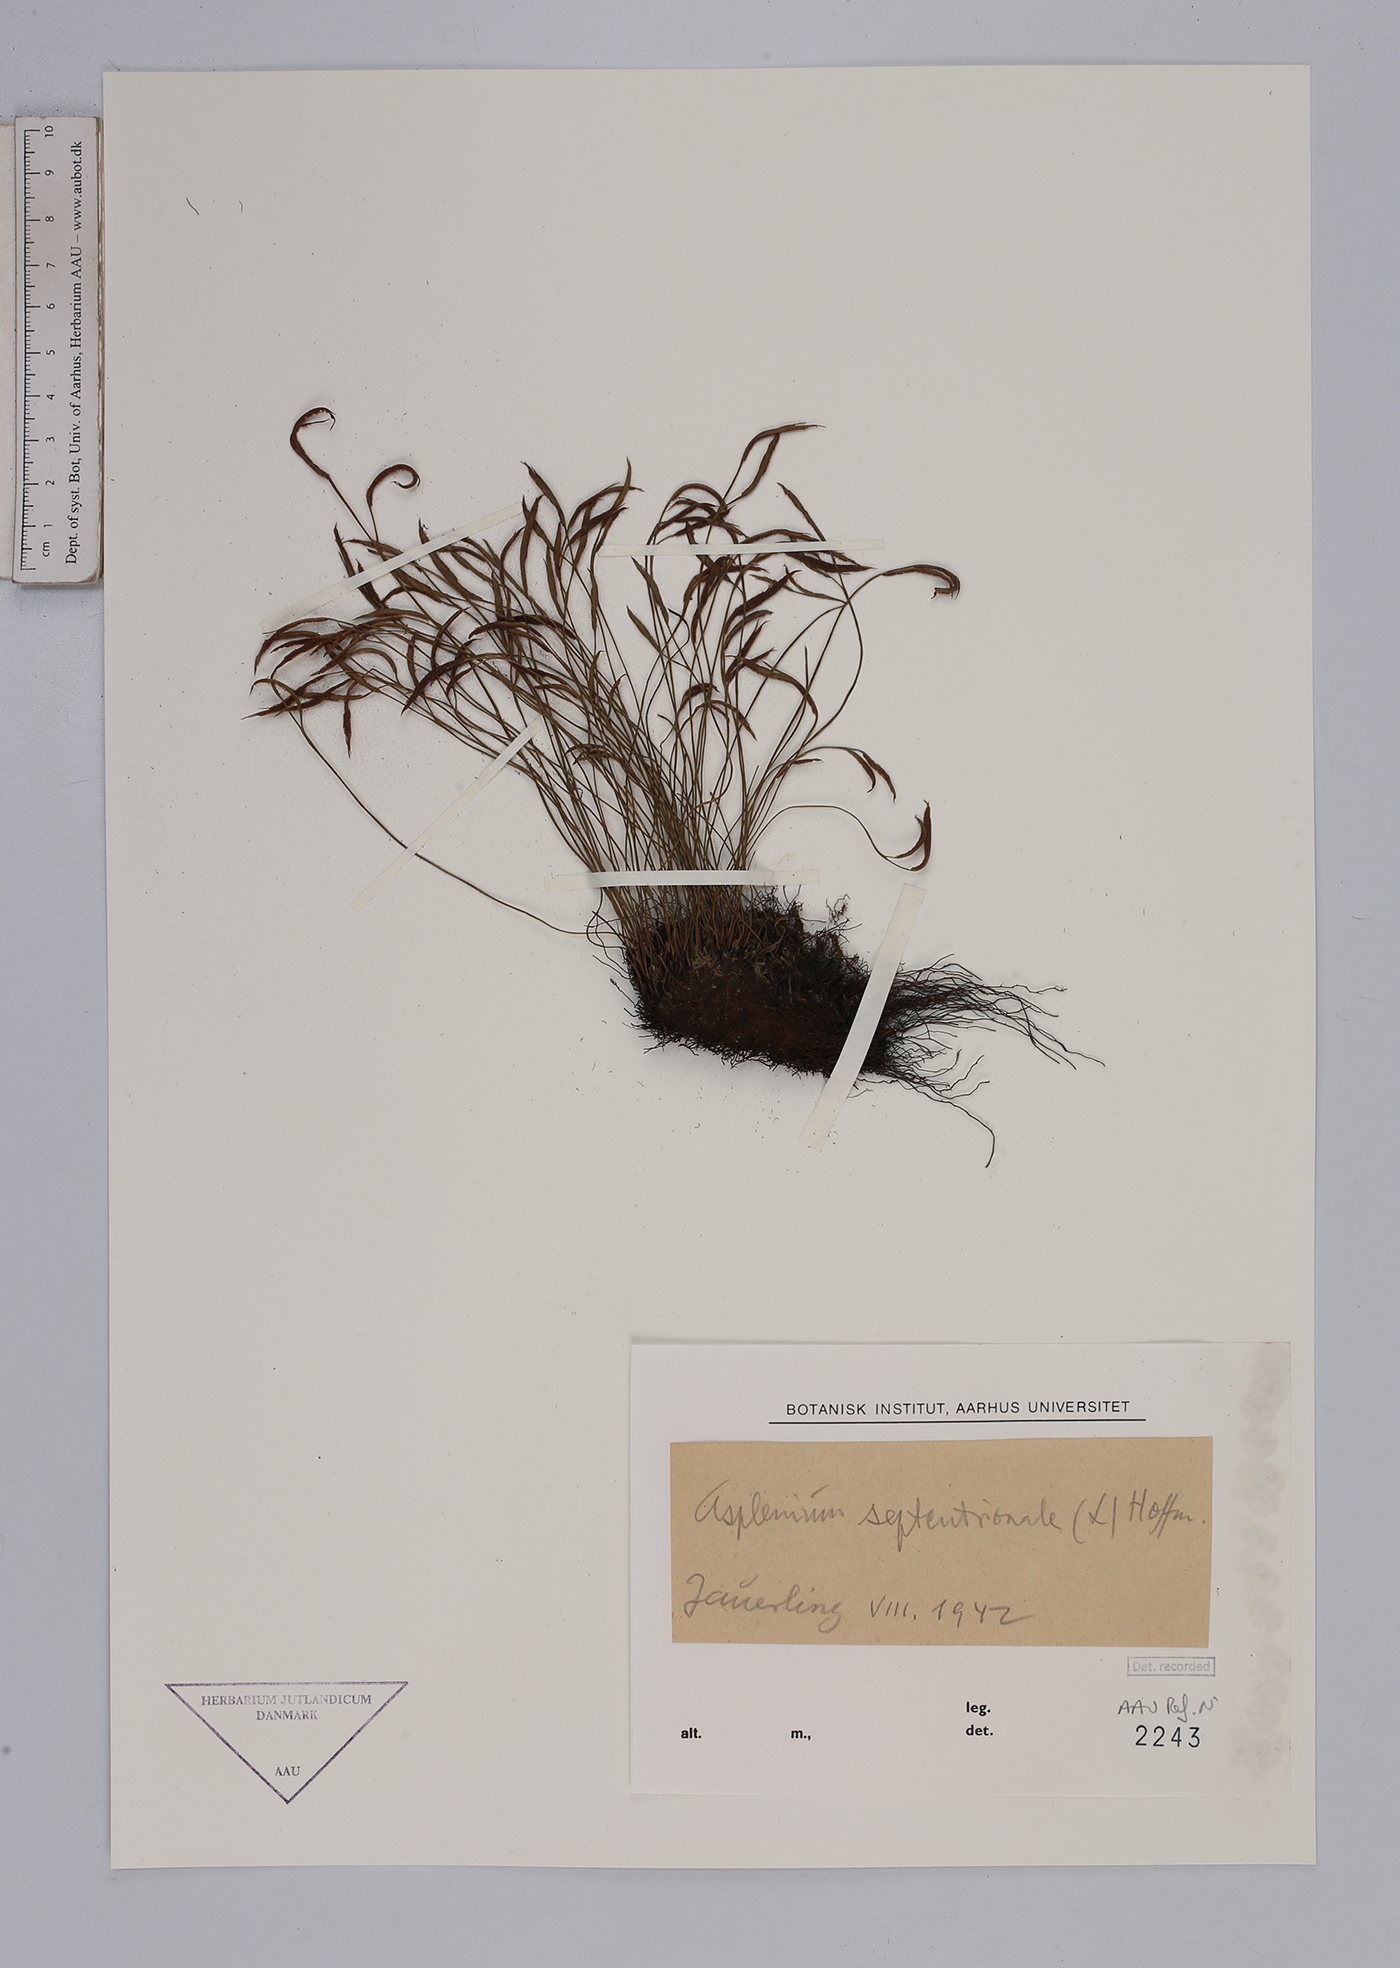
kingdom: Plantae
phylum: Tracheophyta
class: Polypodiopsida
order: Polypodiales
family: Aspleniaceae
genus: Asplenium
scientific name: Asplenium septentrionale
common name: Forked spleenwort
